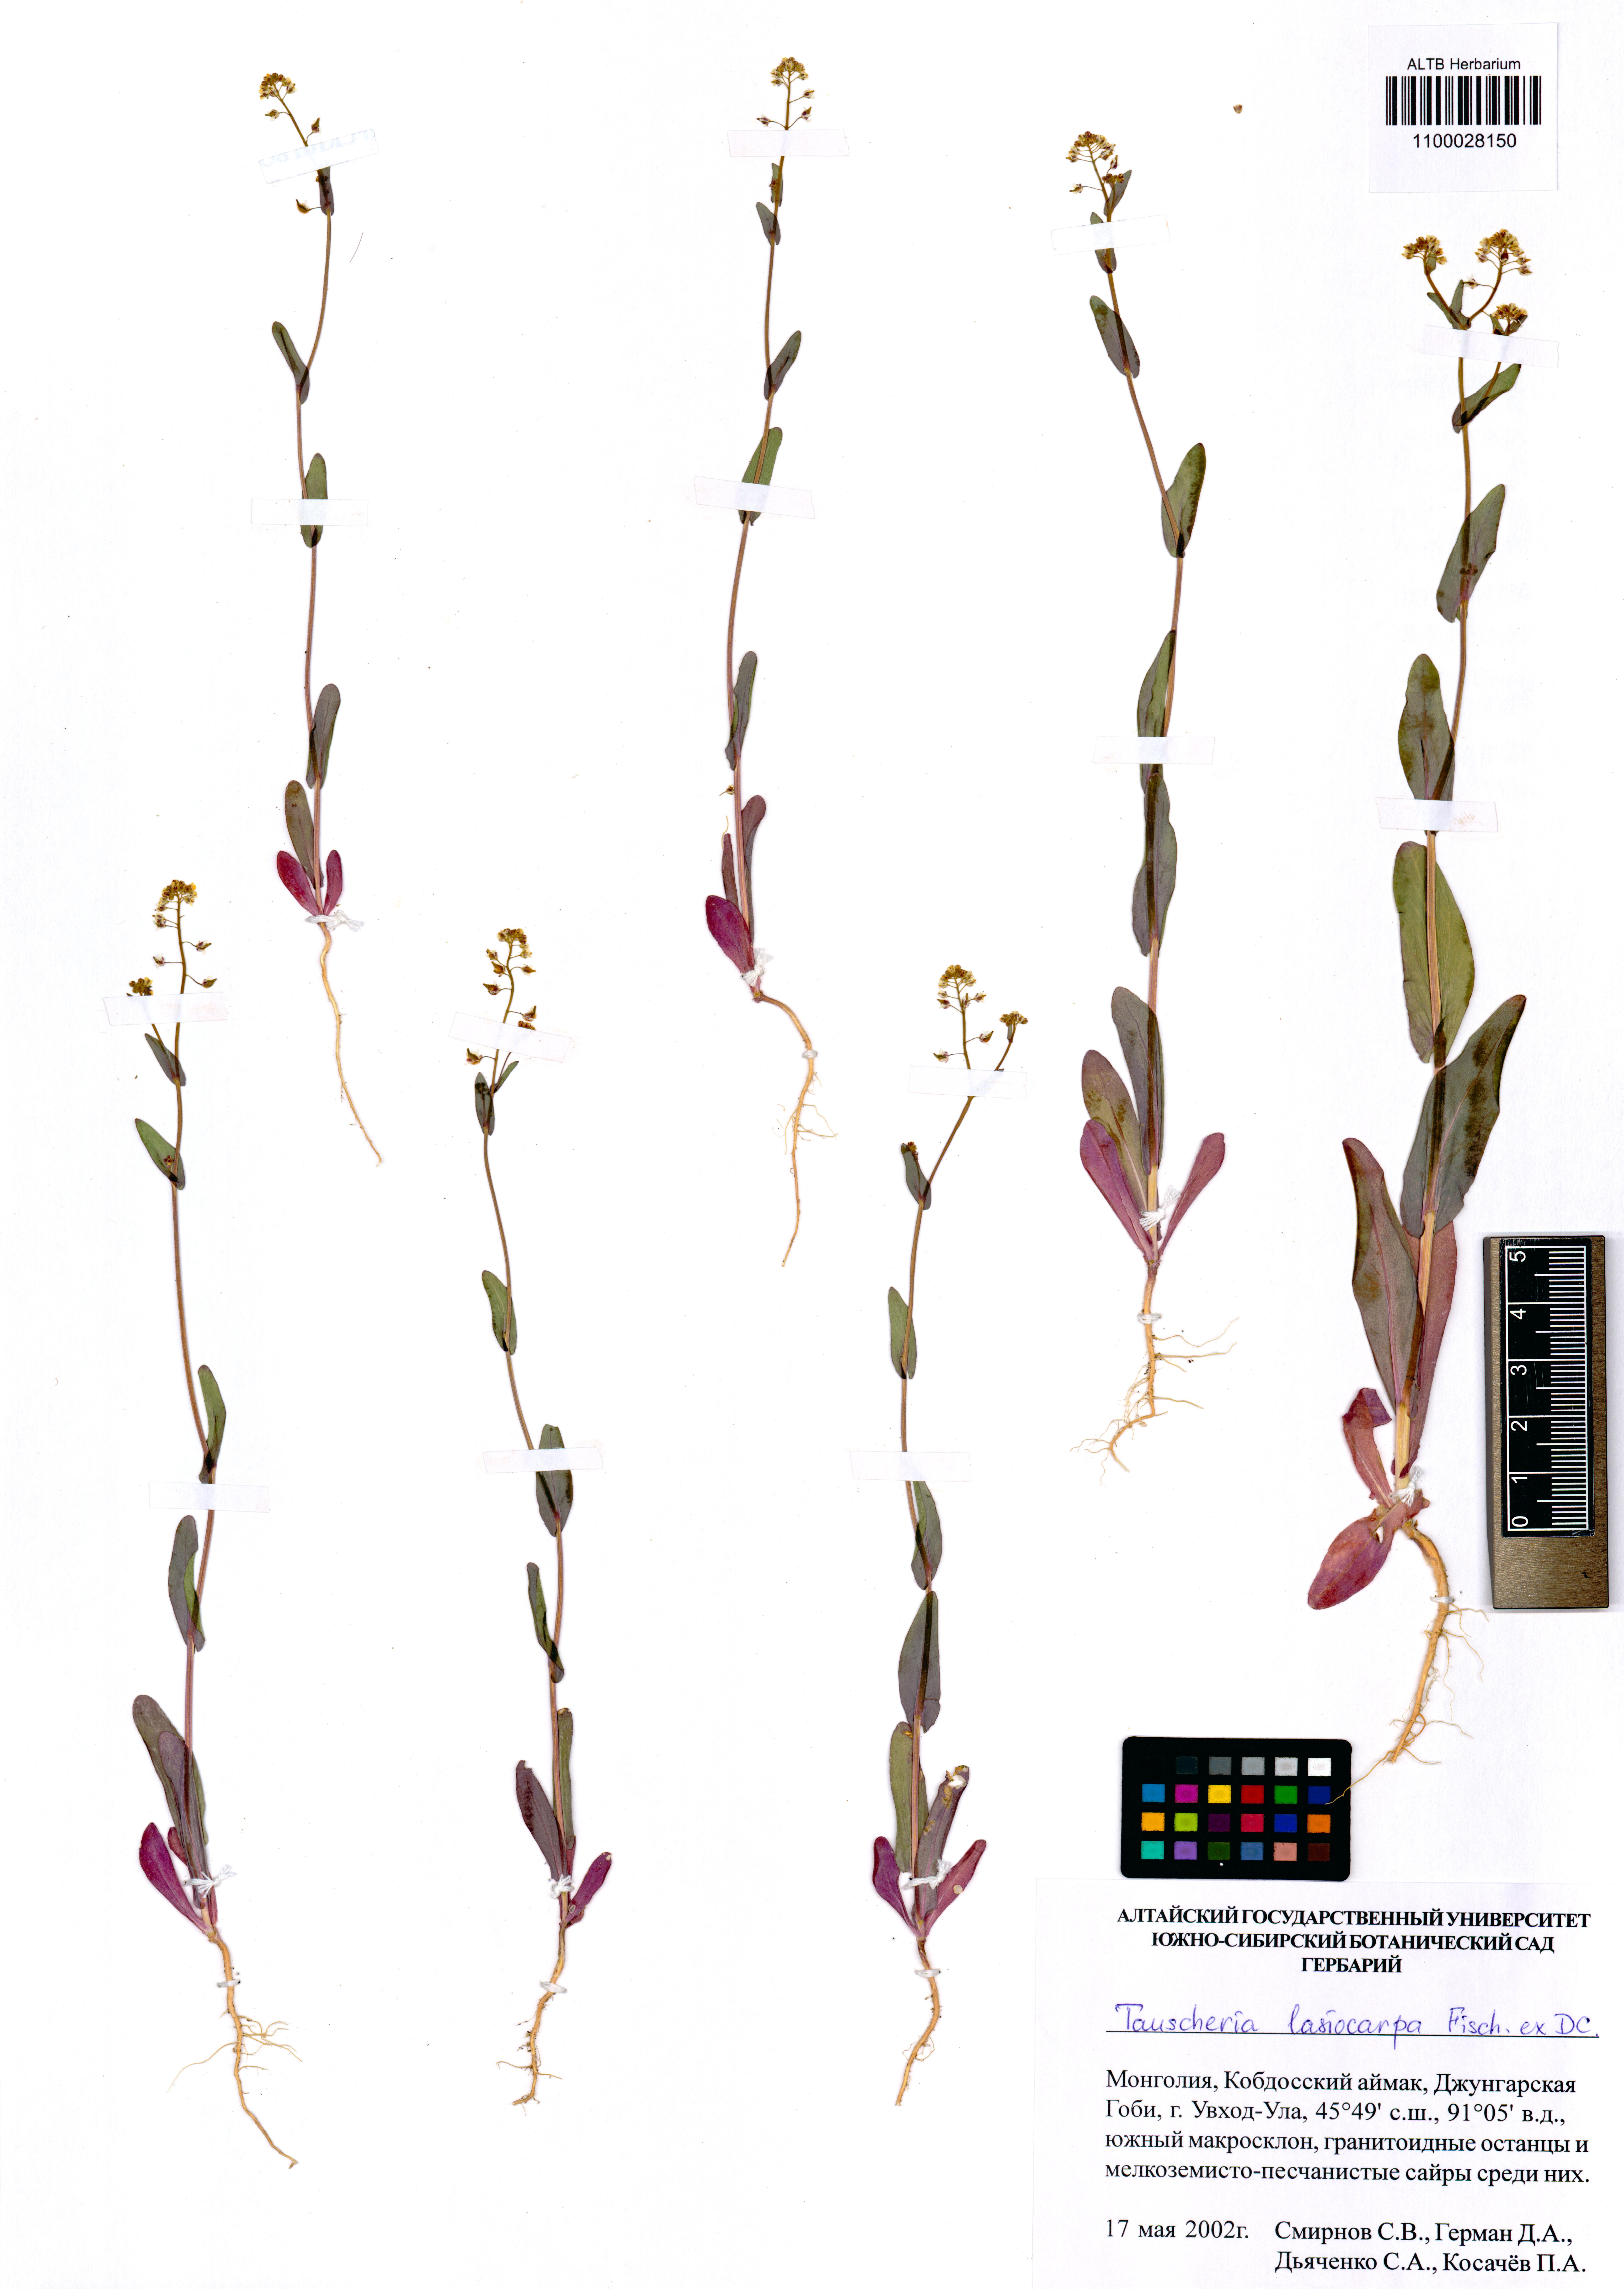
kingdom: Plantae
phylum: Tracheophyta
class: Magnoliopsida
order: Brassicales
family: Brassicaceae
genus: Tauscheria
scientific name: Tauscheria lasiocarpa
